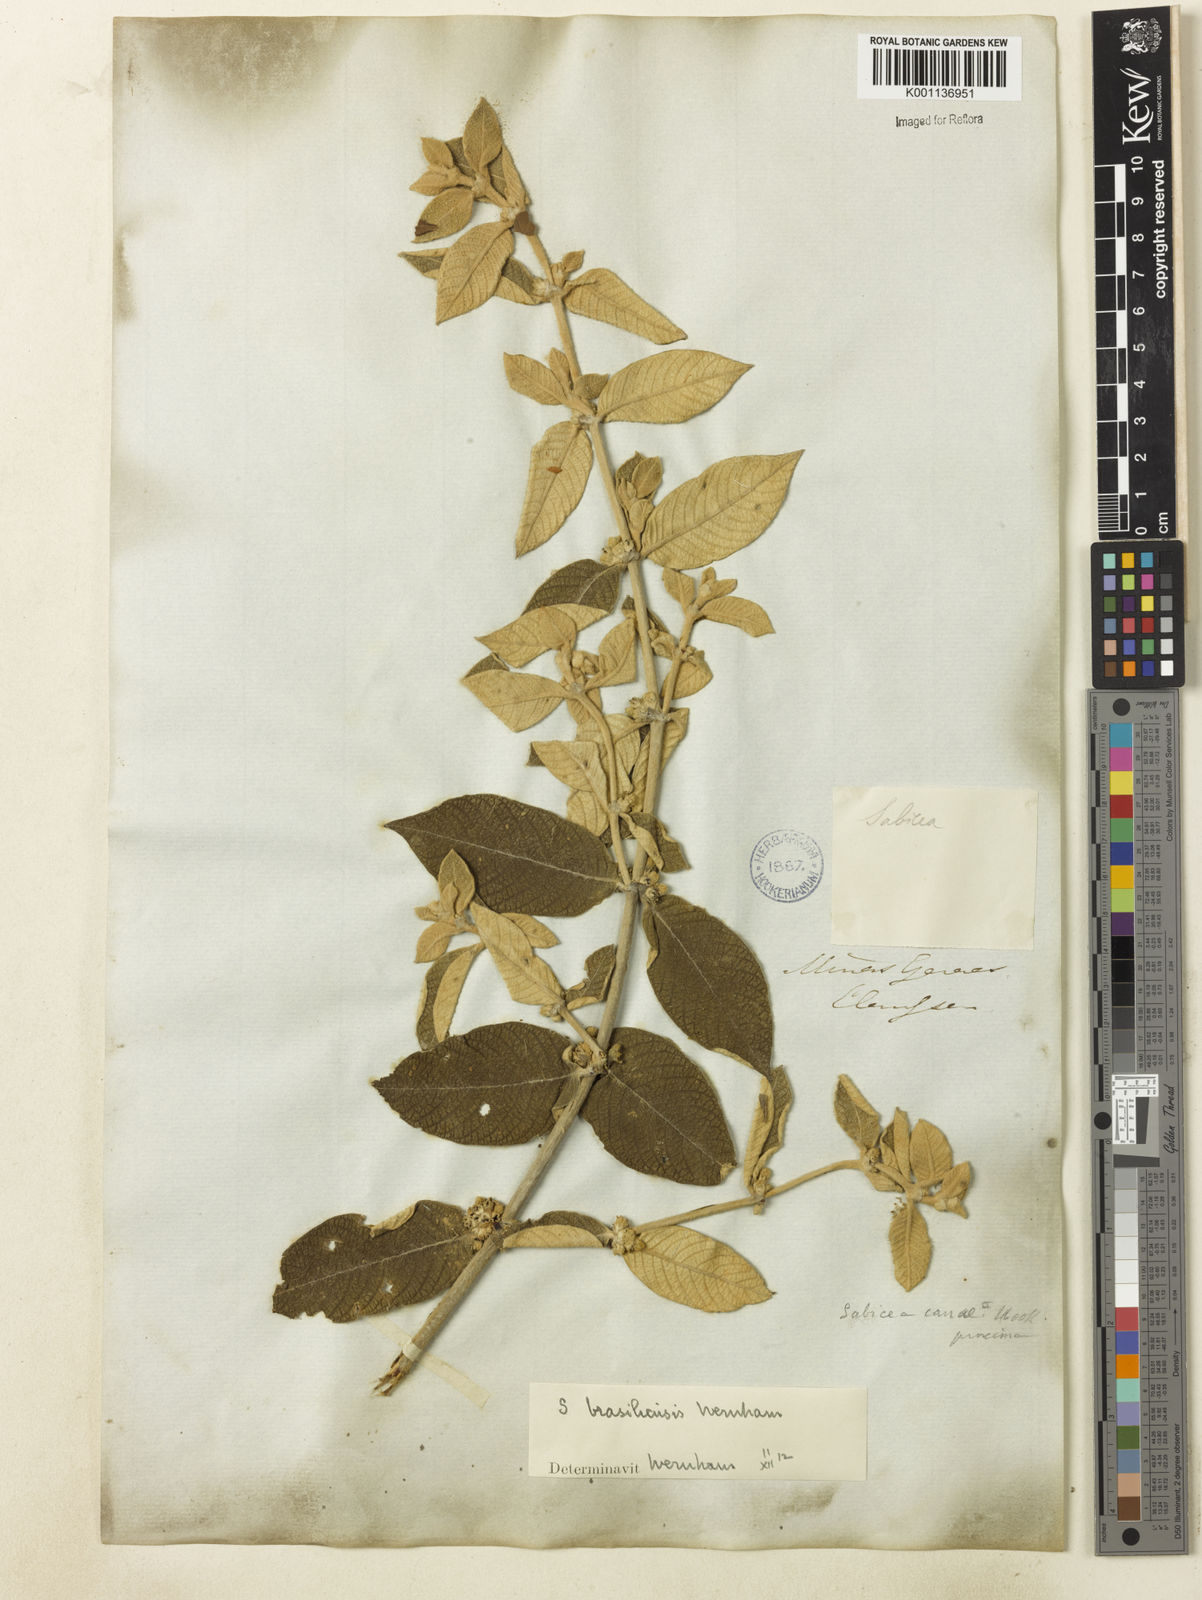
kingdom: Plantae
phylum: Tracheophyta
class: Magnoliopsida
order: Gentianales
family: Rubiaceae
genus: Sabicea
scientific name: Sabicea brasiliensis
